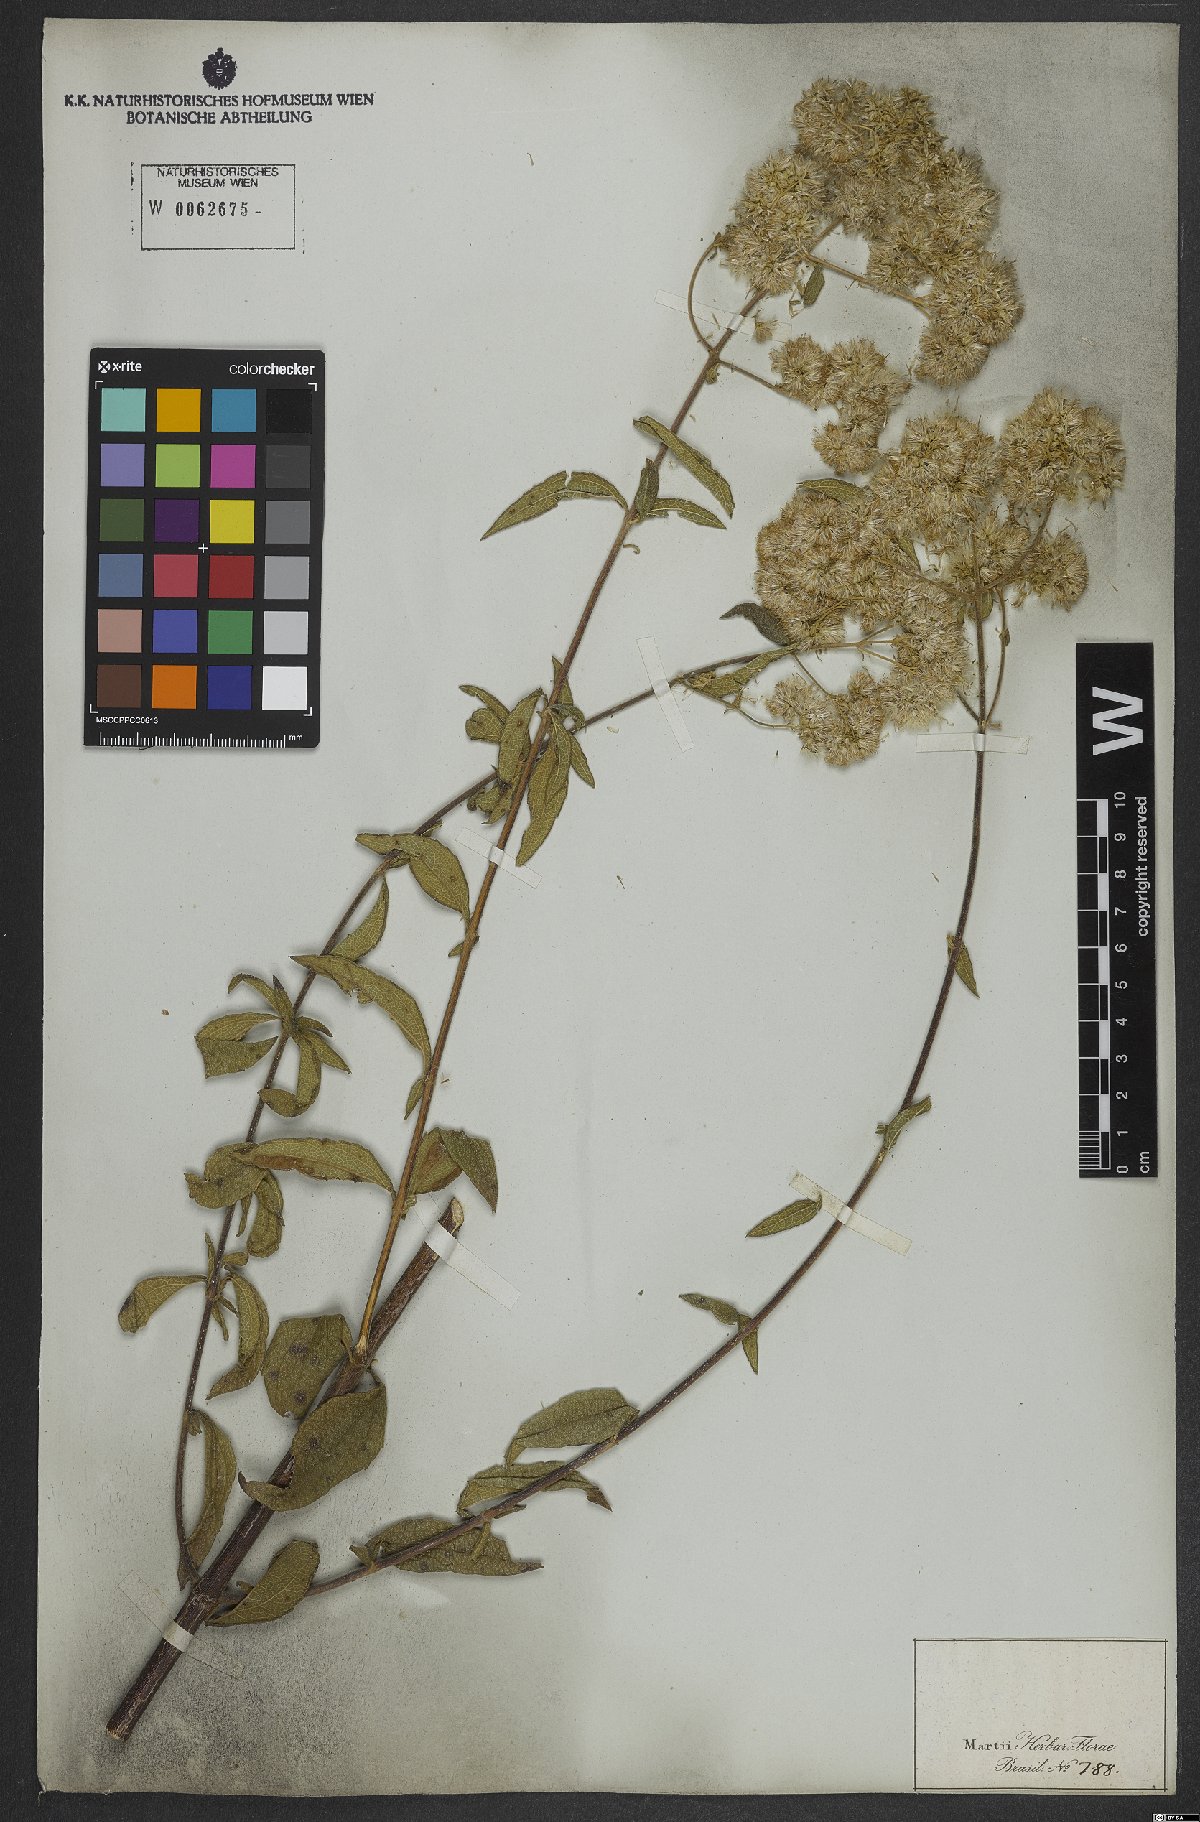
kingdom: Plantae
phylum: Tracheophyta
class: Magnoliopsida
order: Asterales
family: Asteraceae
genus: Austroeupatorium
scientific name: Austroeupatorium silphiifolium
